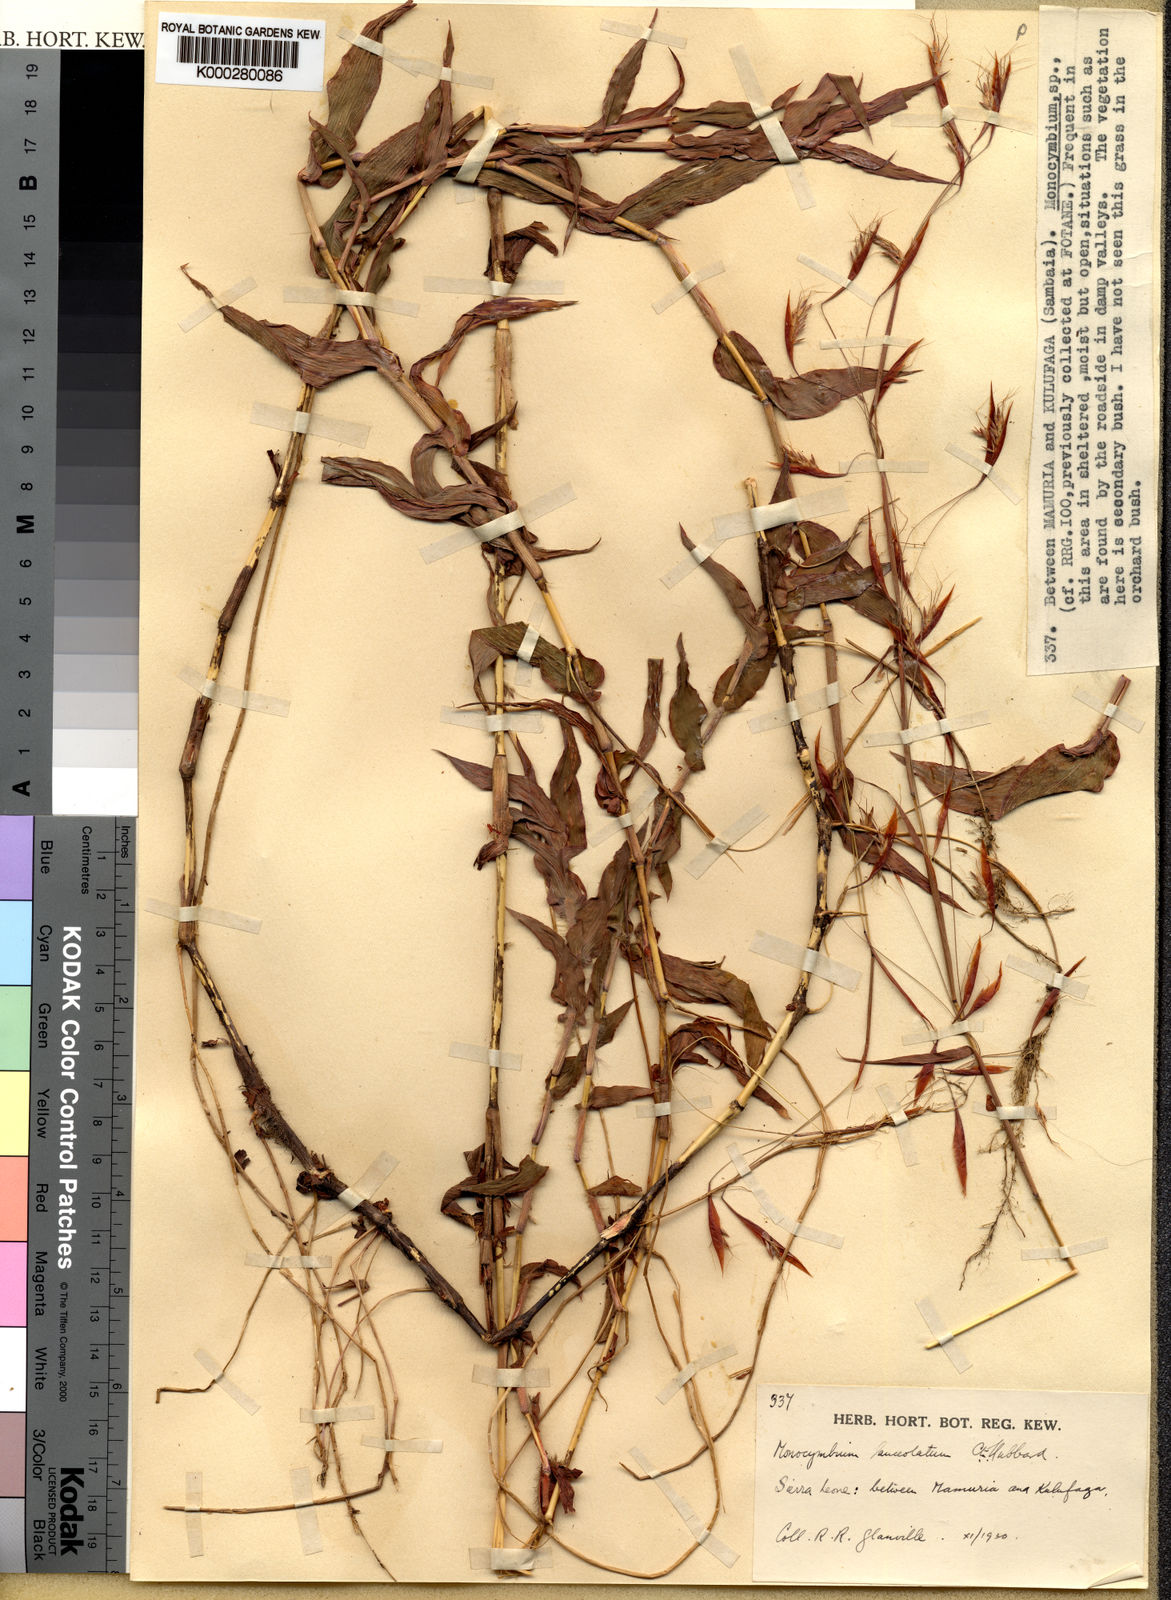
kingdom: Plantae
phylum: Tracheophyta
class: Liliopsida
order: Poales
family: Poaceae
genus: Monocymbium
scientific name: Monocymbium lanceolatum
